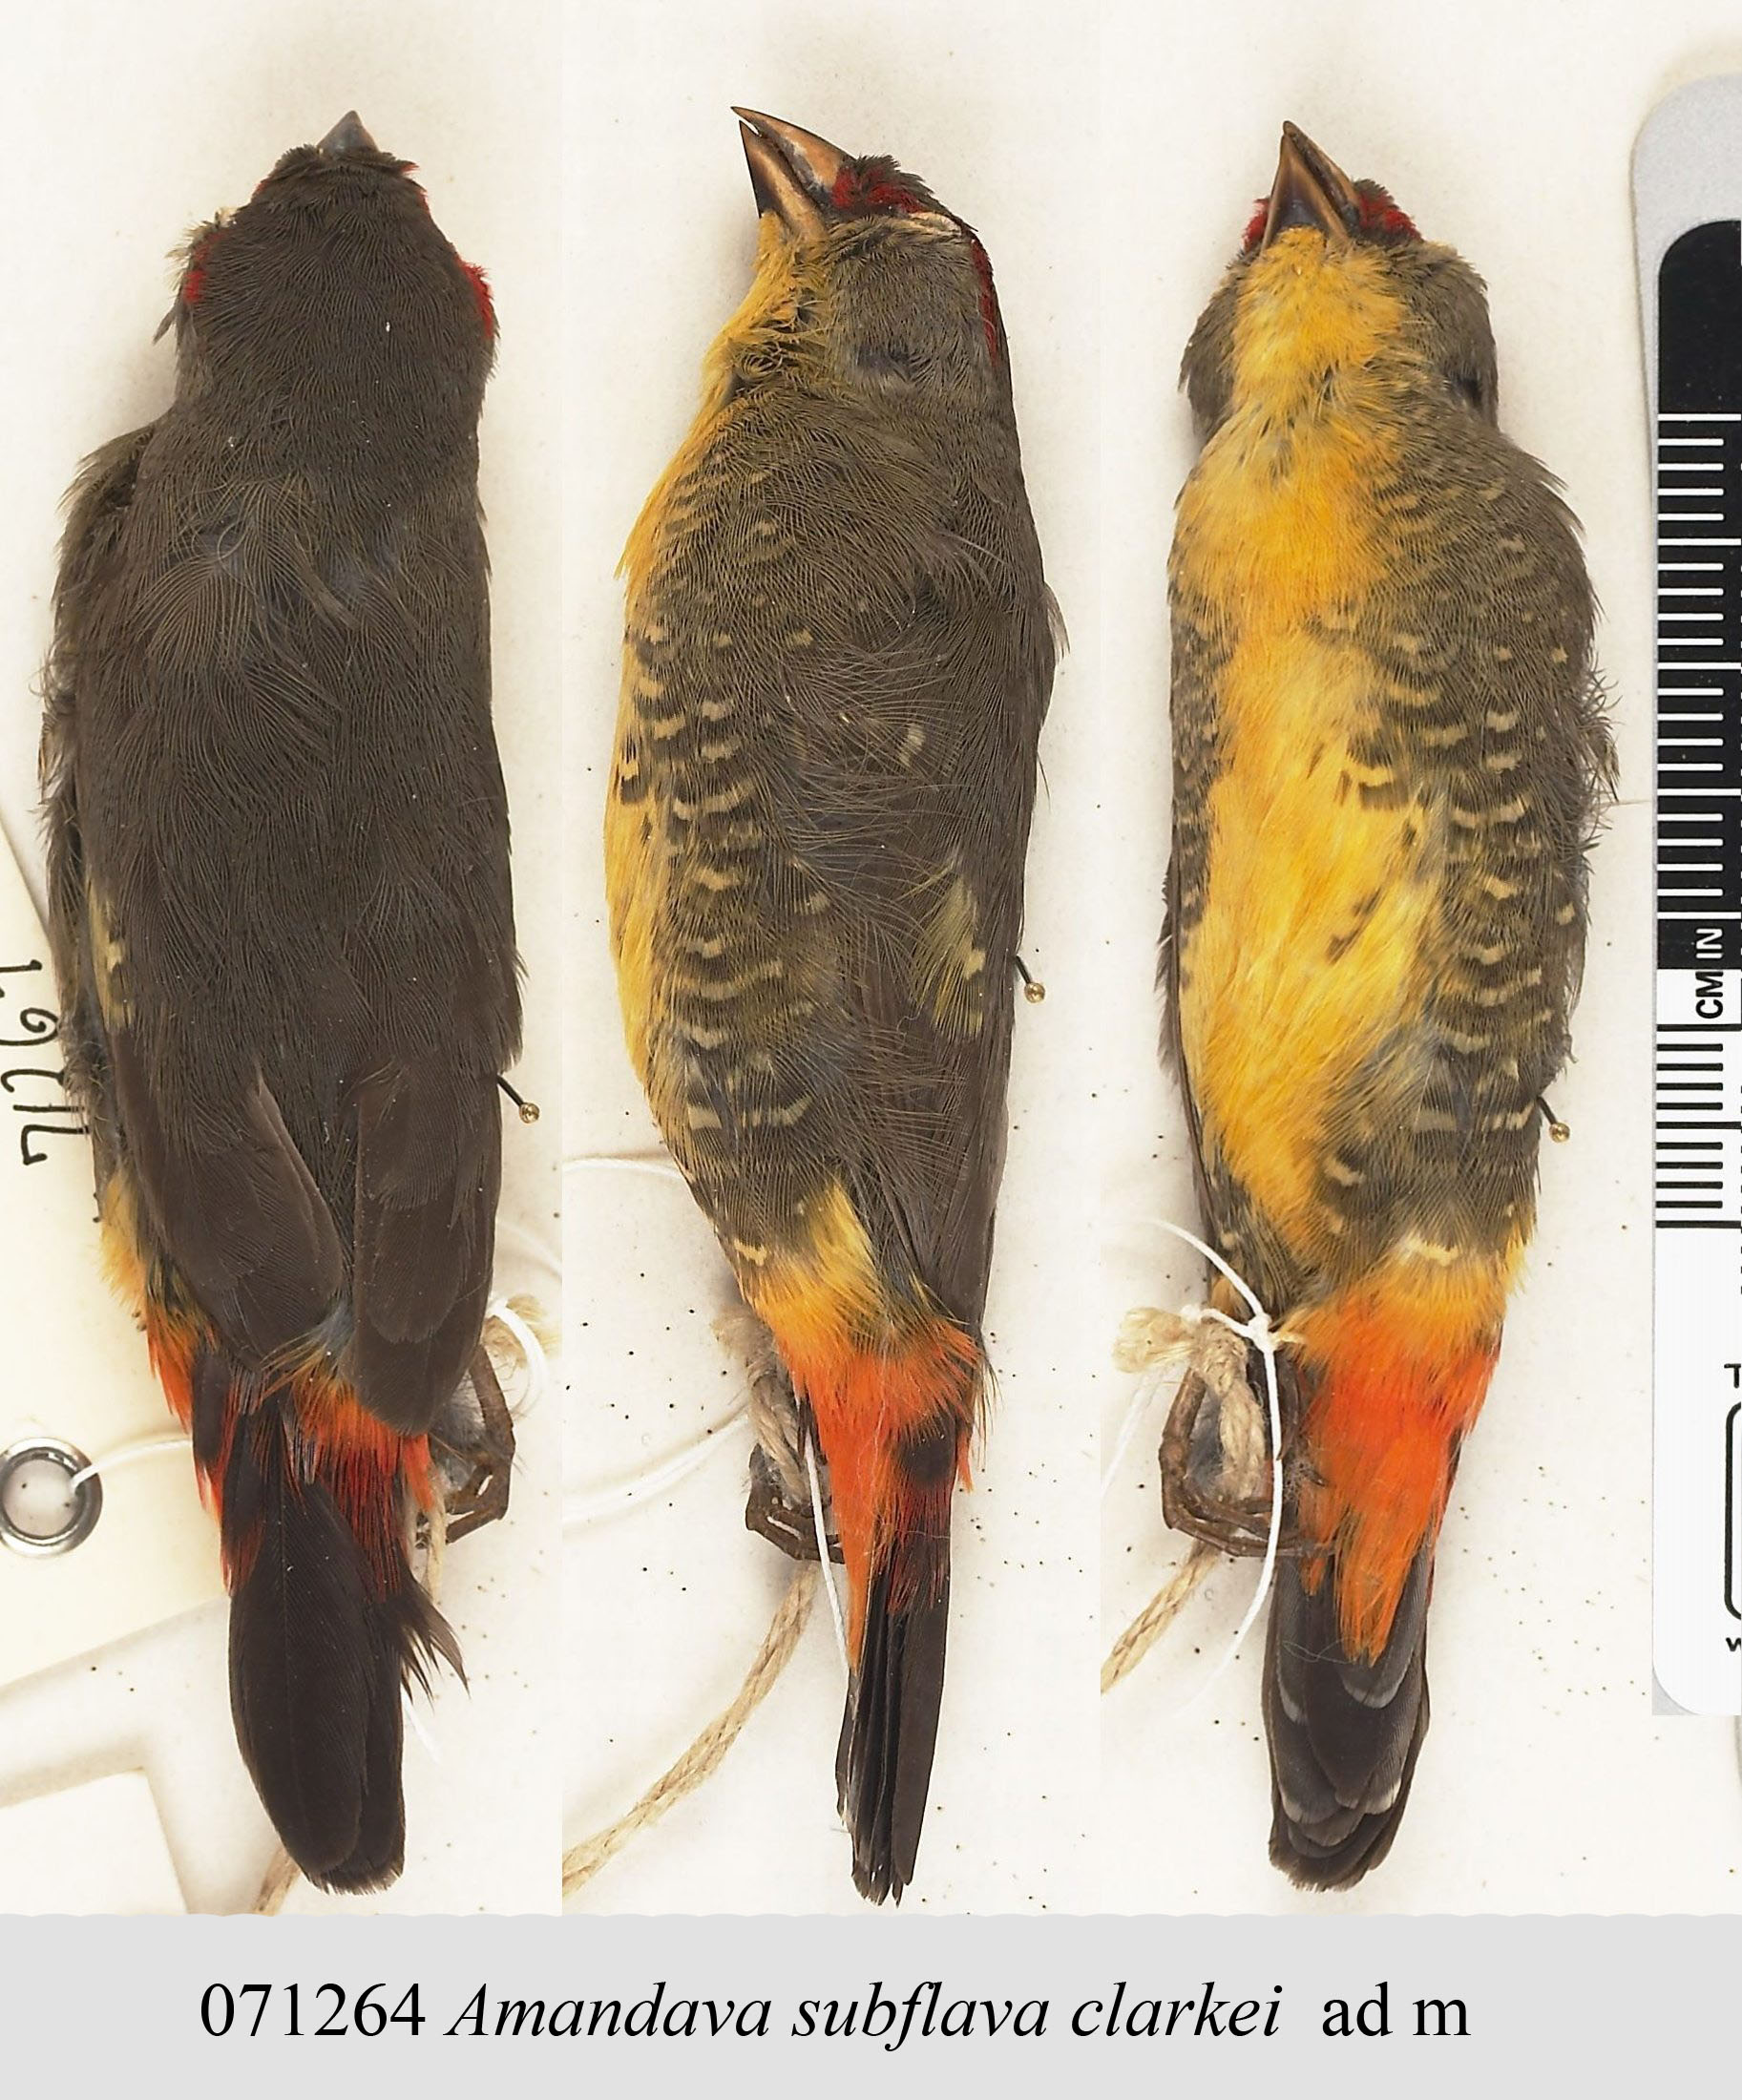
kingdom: Animalia
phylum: Chordata
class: Aves
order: Passeriformes
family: Estrildidae
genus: Amandava
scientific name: Amandava subflava
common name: Orange-breasted waxbill
